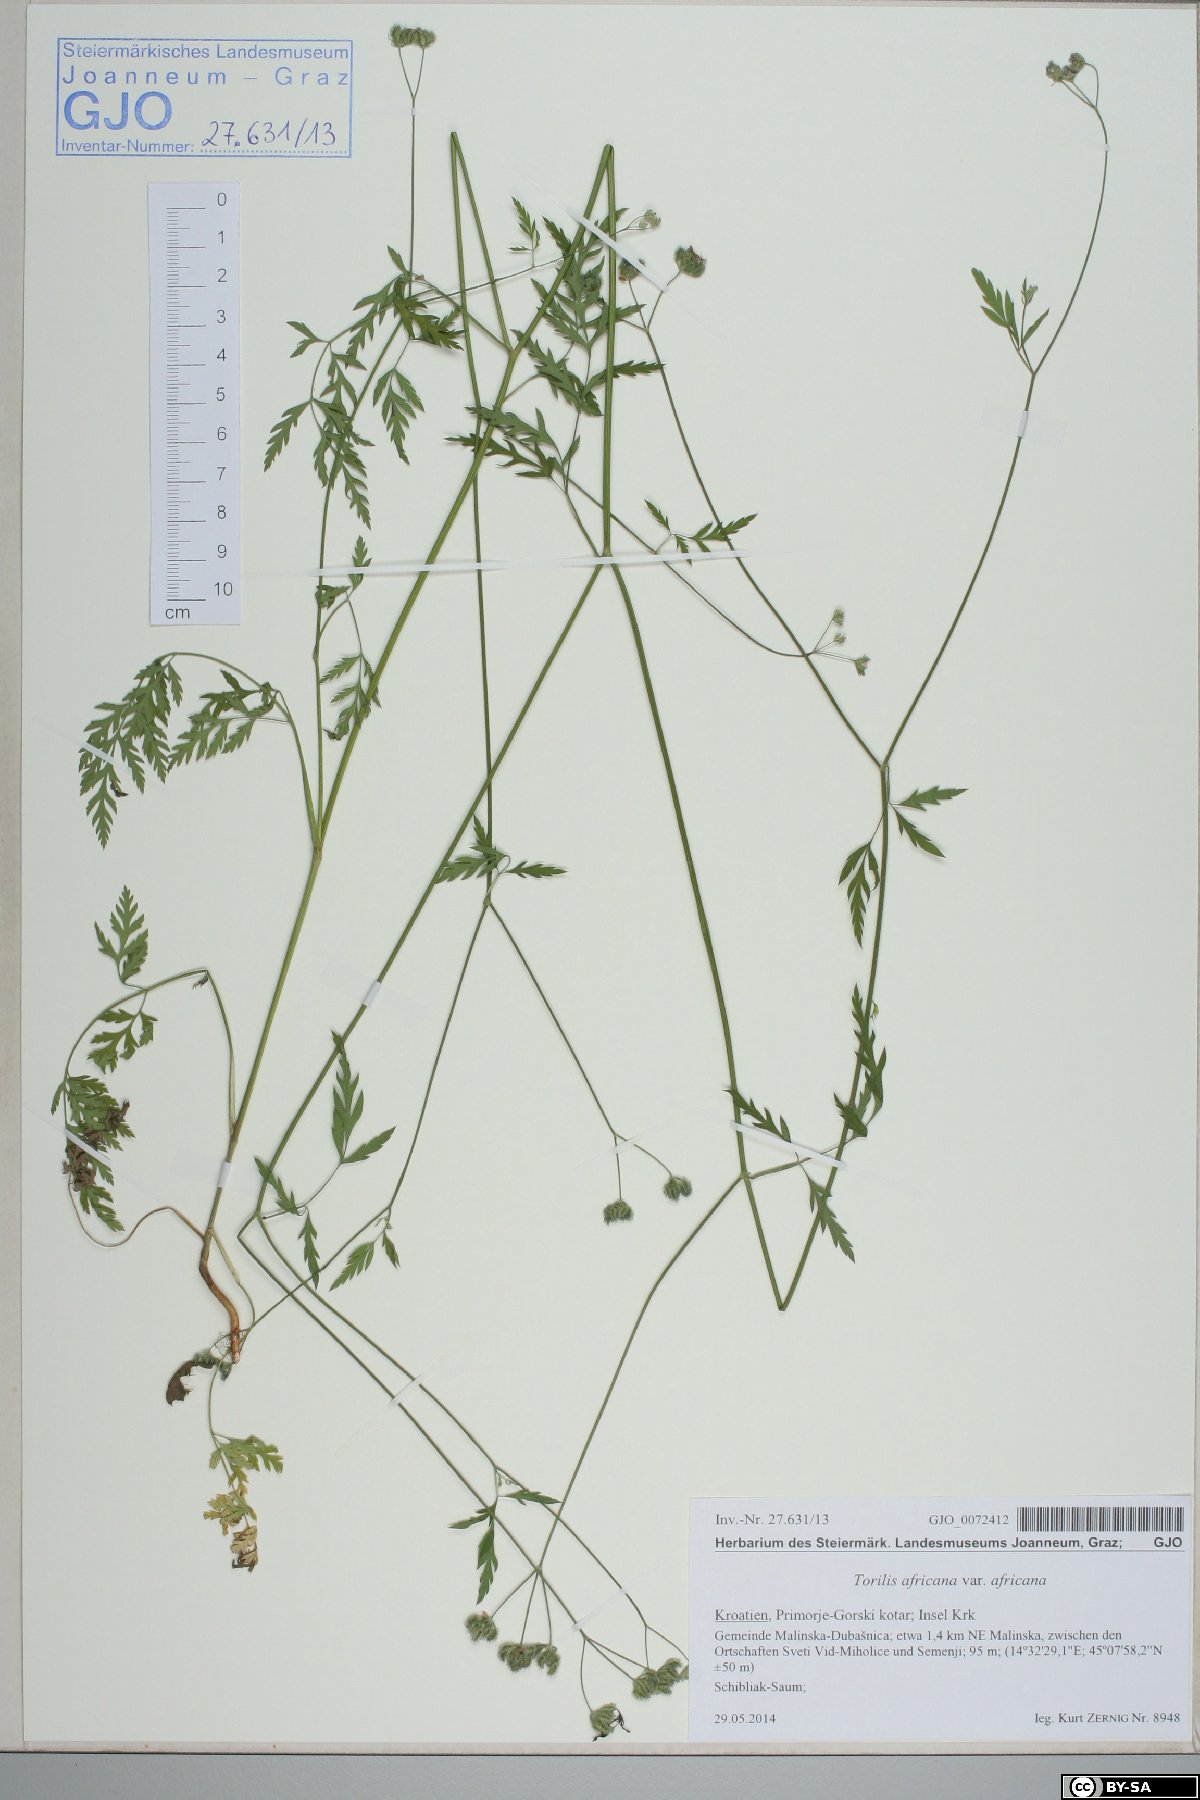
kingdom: Plantae
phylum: Tracheophyta
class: Magnoliopsida
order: Apiales
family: Apiaceae
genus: Torilis
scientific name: Torilis africana
